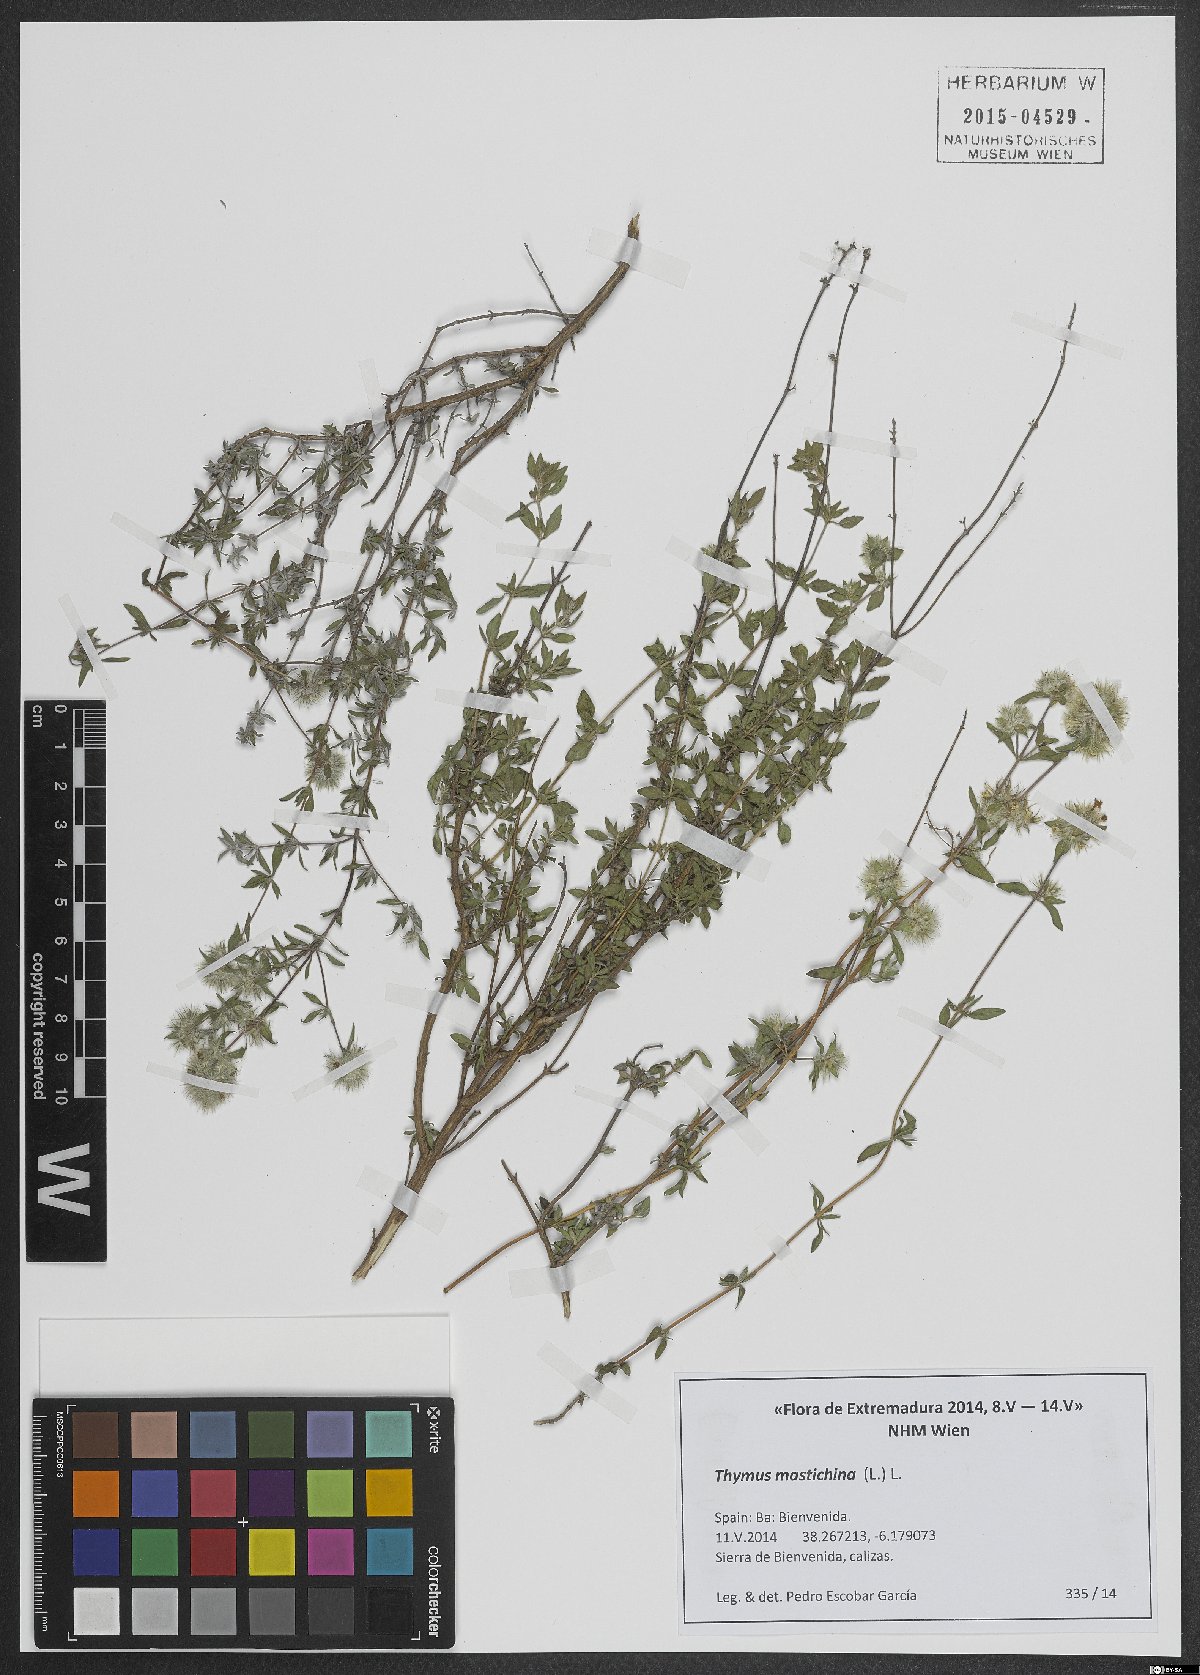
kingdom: Plantae
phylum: Tracheophyta
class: Magnoliopsida
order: Lamiales
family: Lamiaceae
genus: Thymus
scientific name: Thymus mastichina
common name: Mastic thyme
